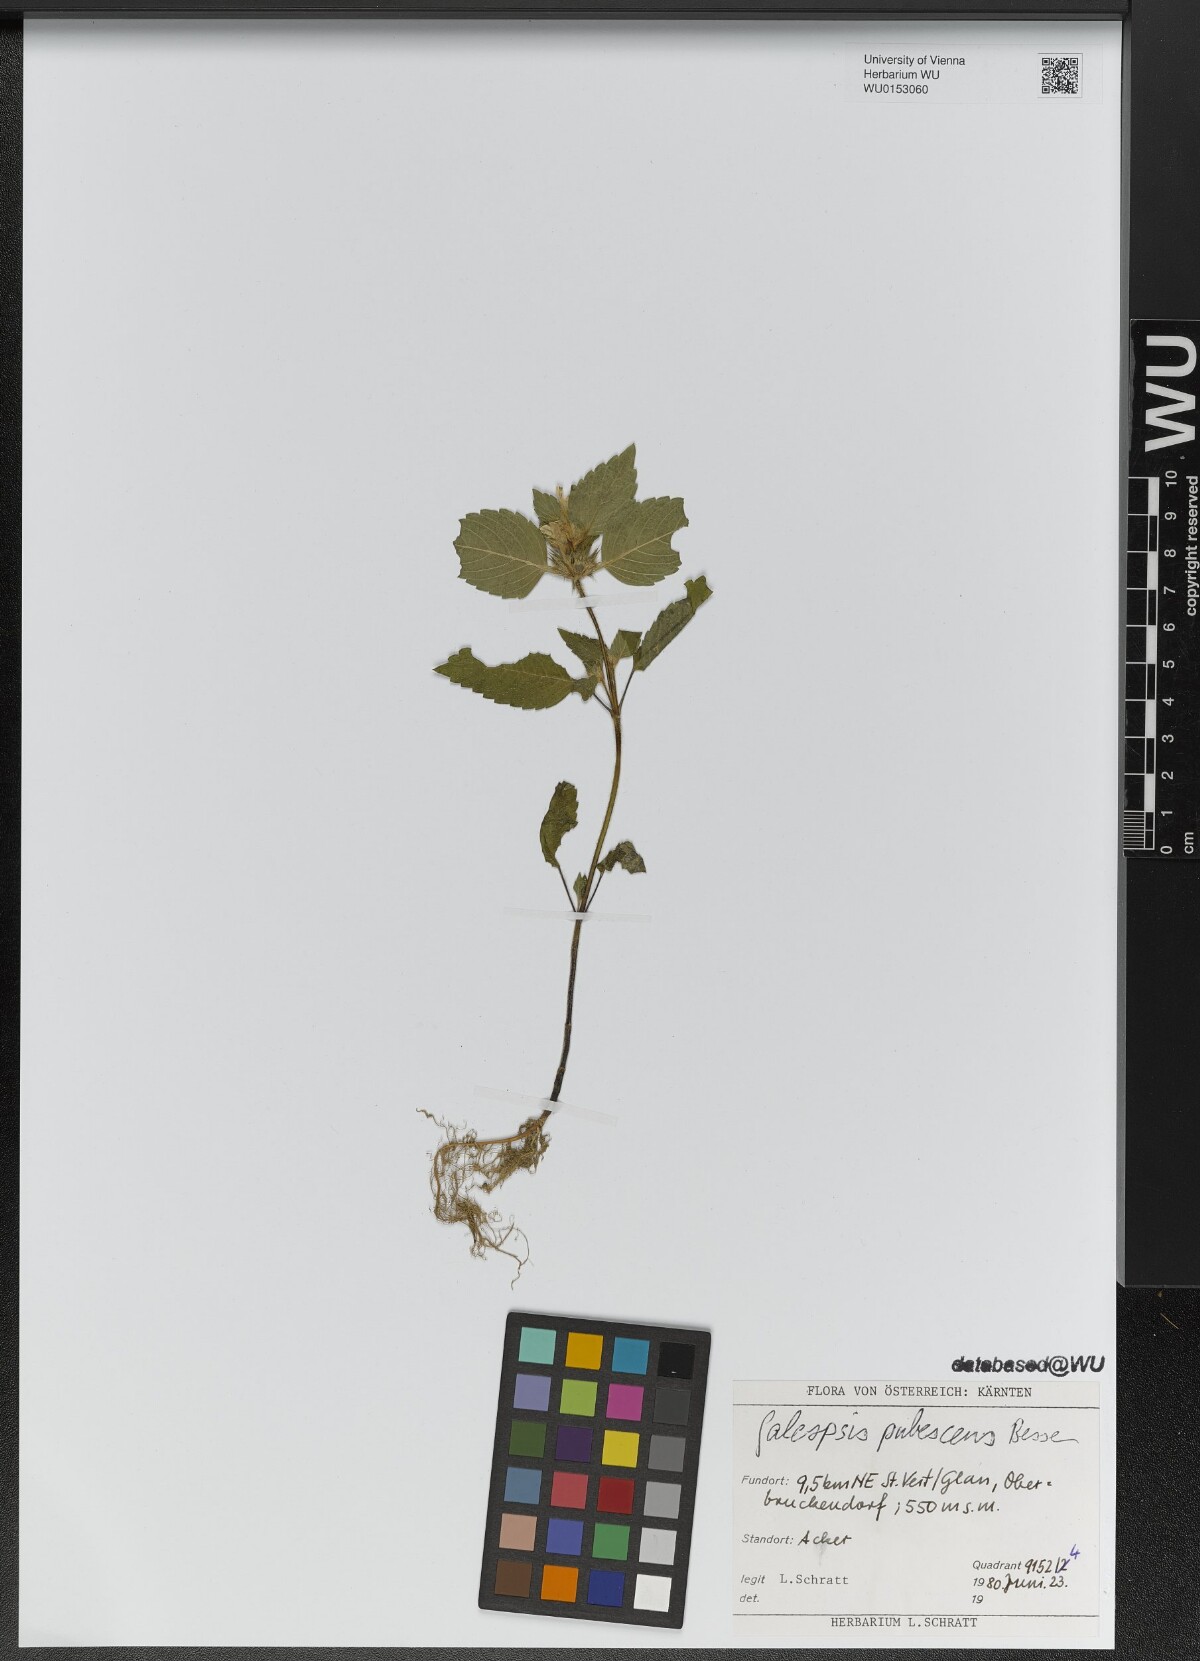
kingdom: Plantae
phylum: Tracheophyta
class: Magnoliopsida
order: Lamiales
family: Lamiaceae
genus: Galeopsis
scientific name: Galeopsis pubescens
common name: Downy hemp-nettle
